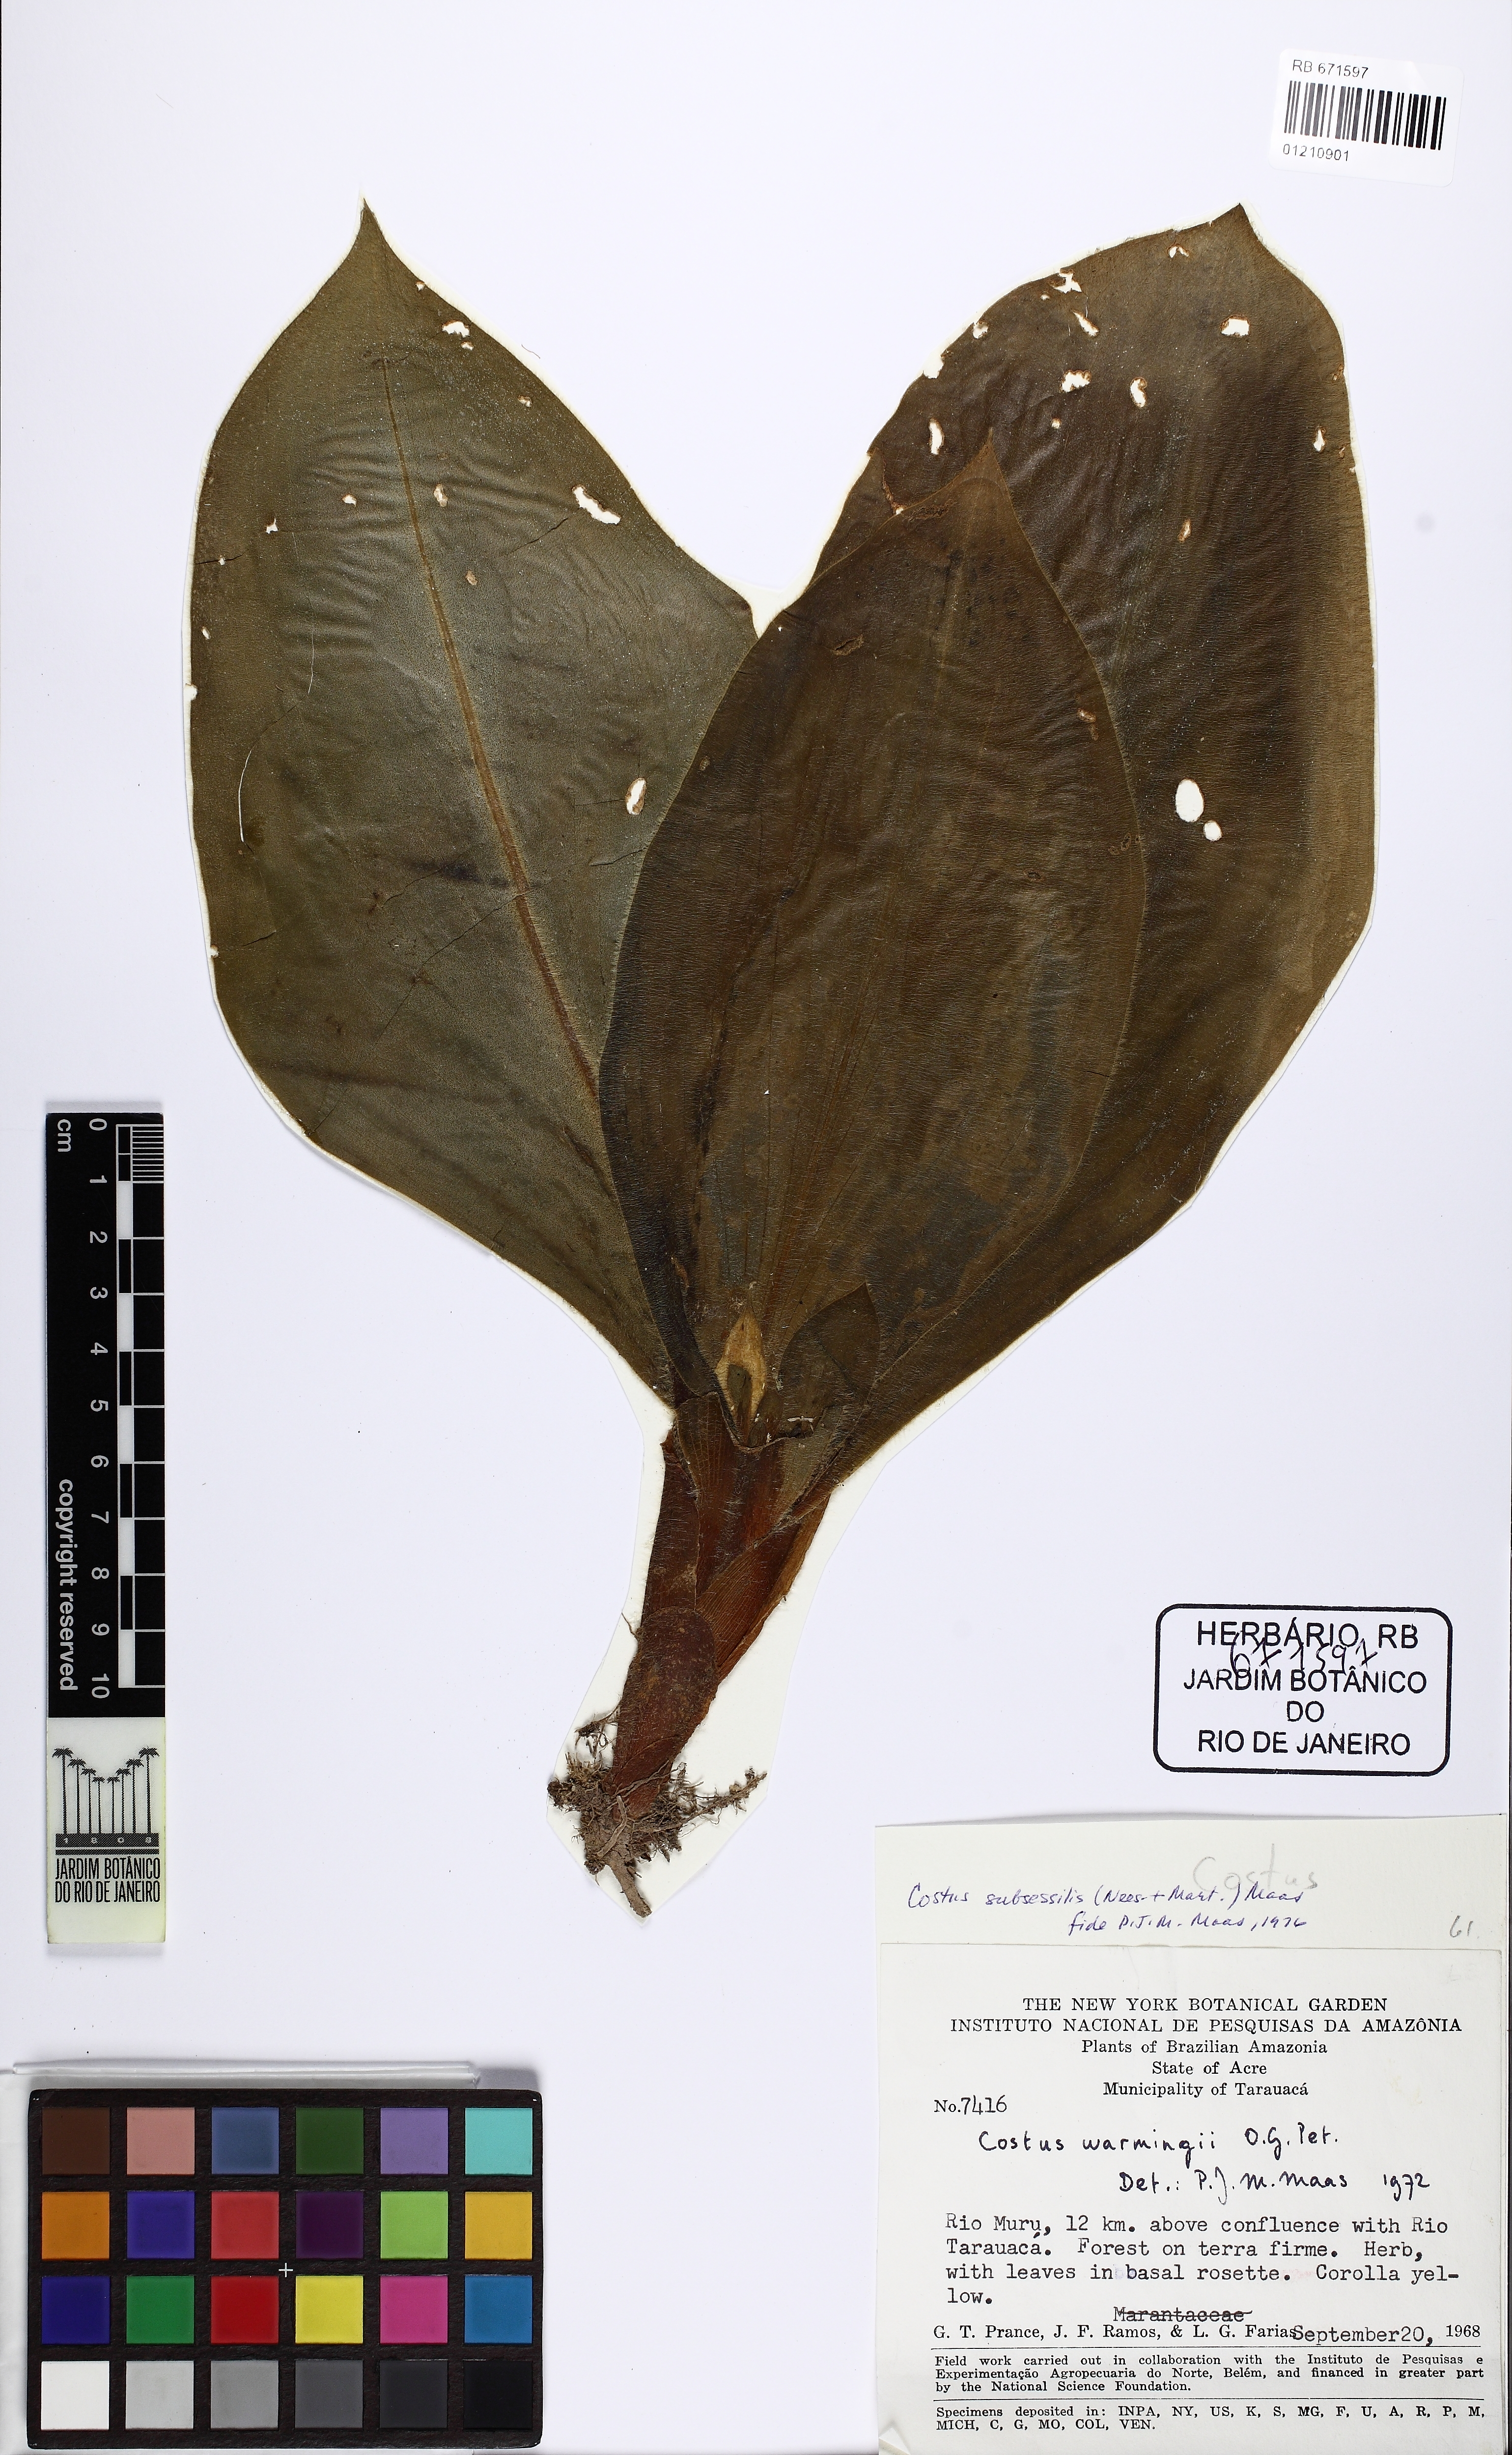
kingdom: Plantae
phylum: Tracheophyta
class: Liliopsida
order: Zingiberales
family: Costaceae
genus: Chamaecostus
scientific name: Chamaecostus subsessilis
